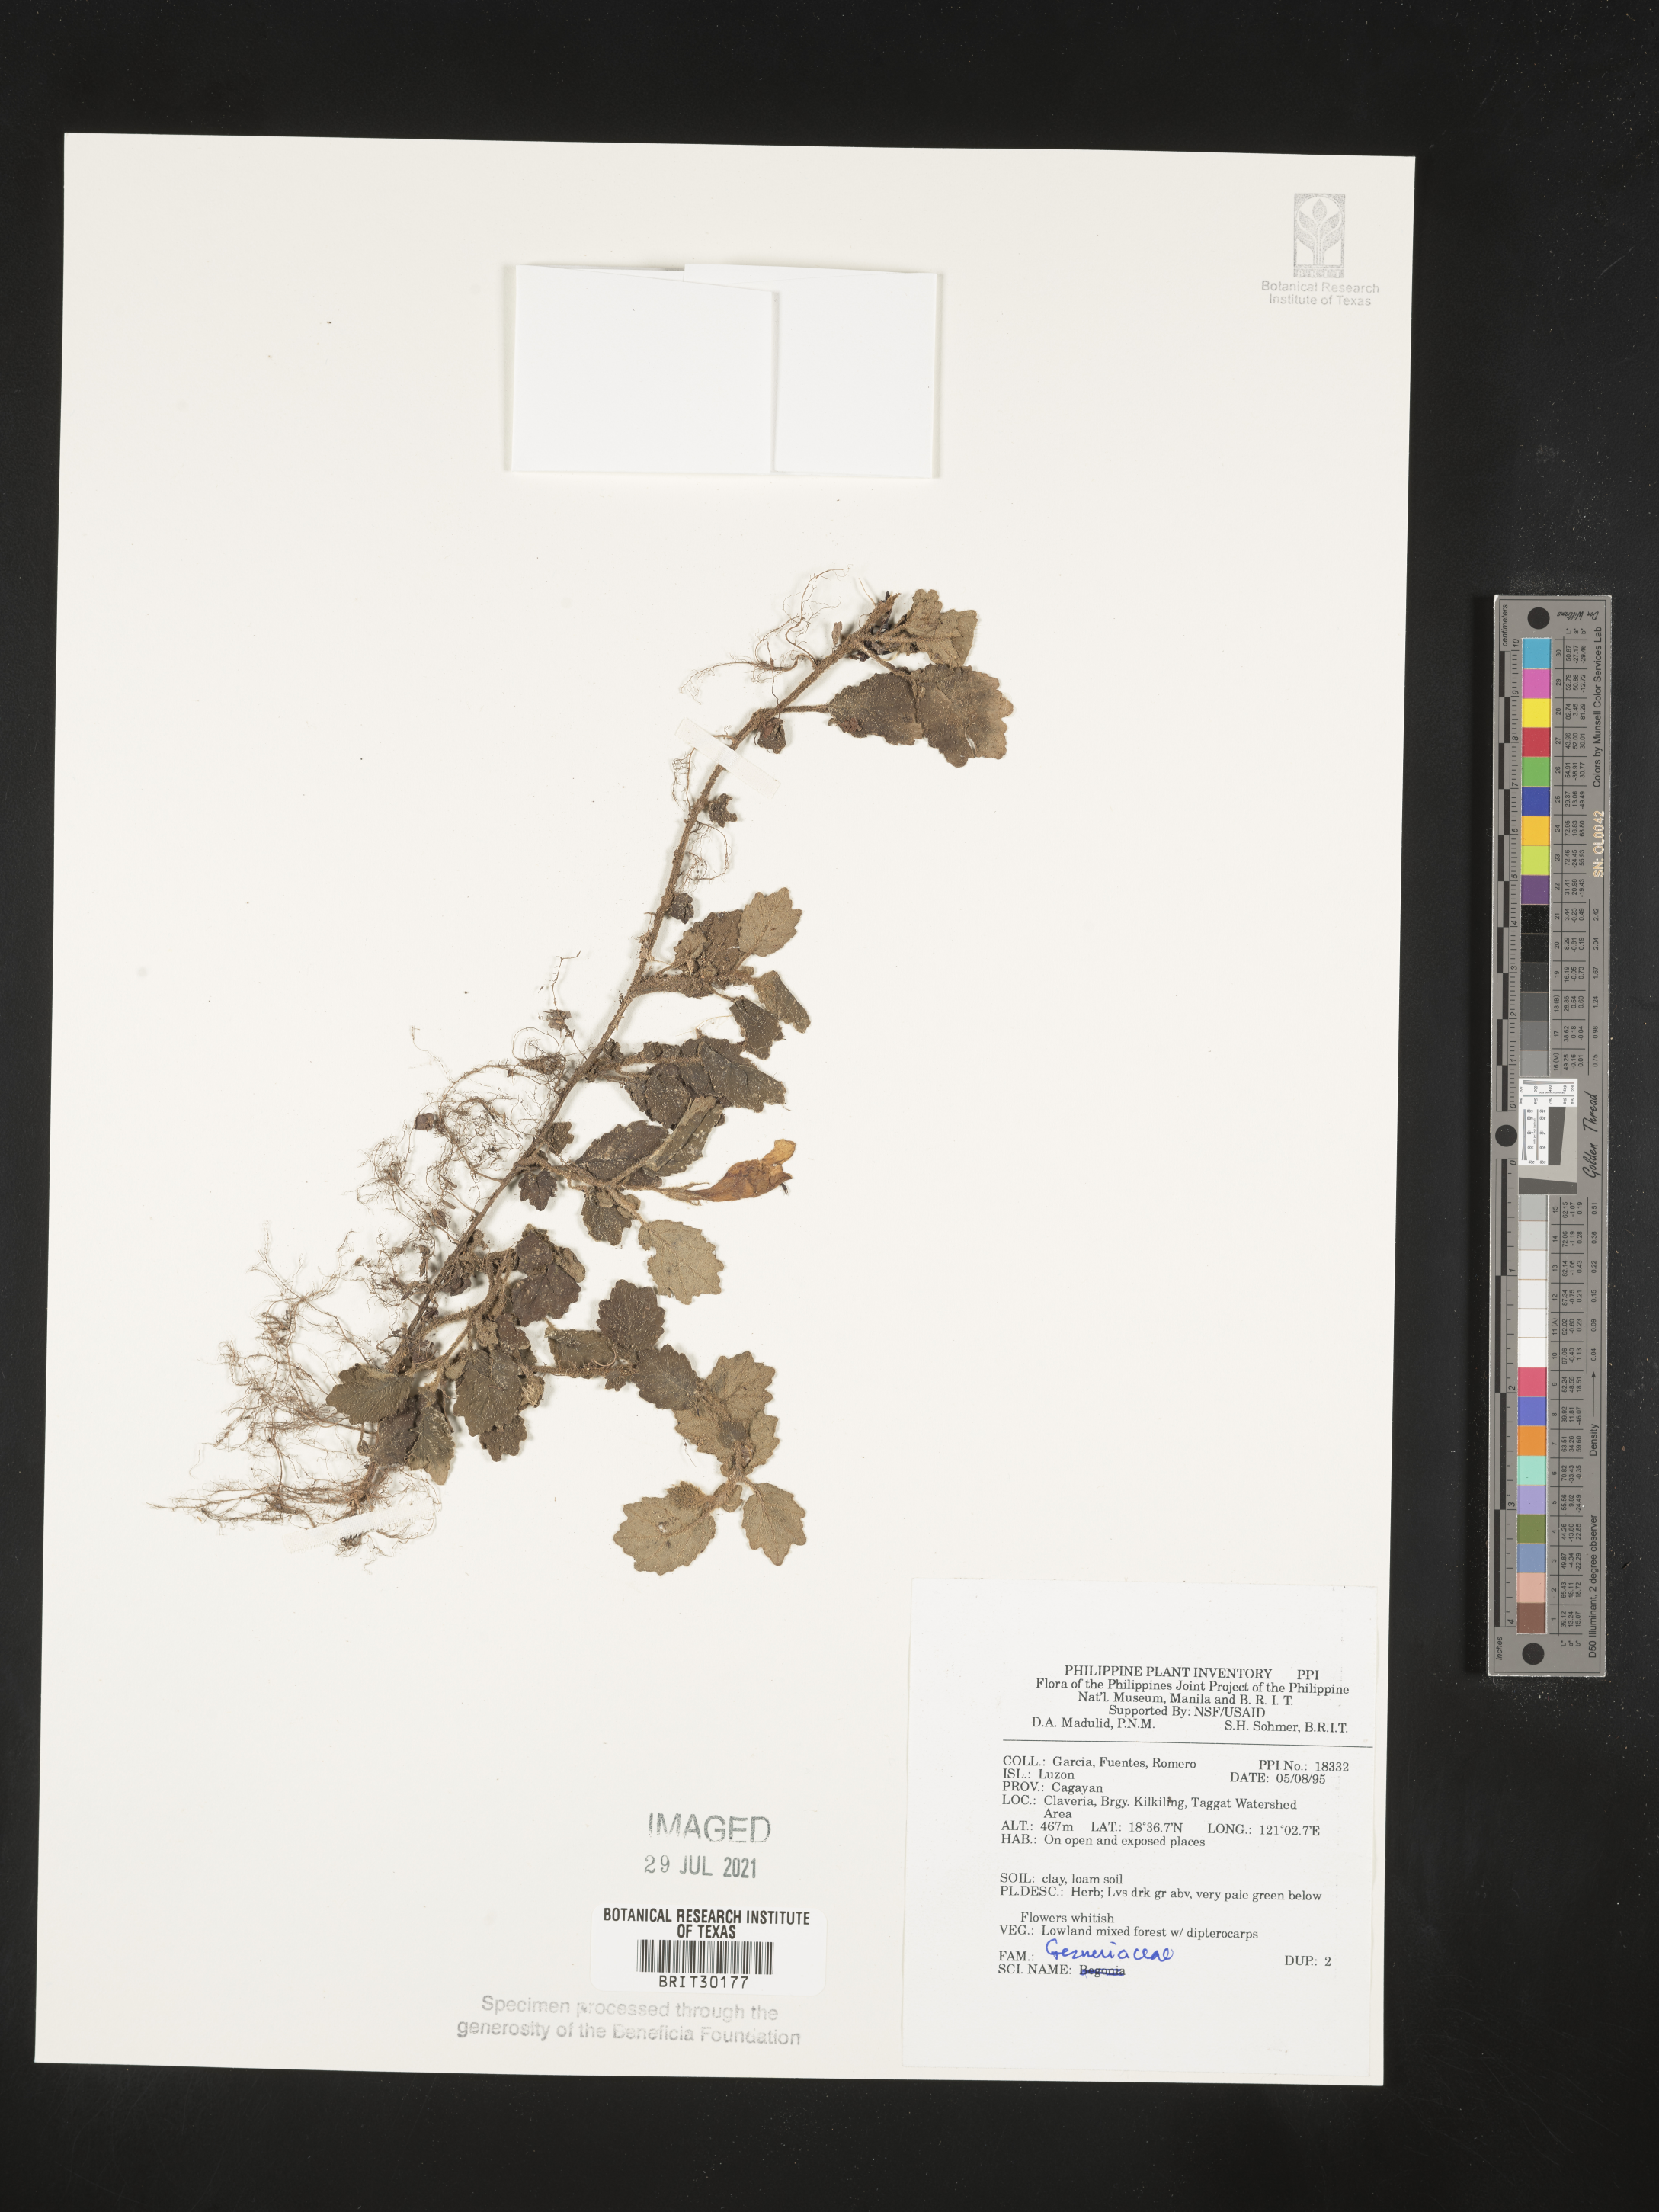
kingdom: Plantae
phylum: Tracheophyta
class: Magnoliopsida
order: Lamiales
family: Gesneriaceae
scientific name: Gesneriaceae
